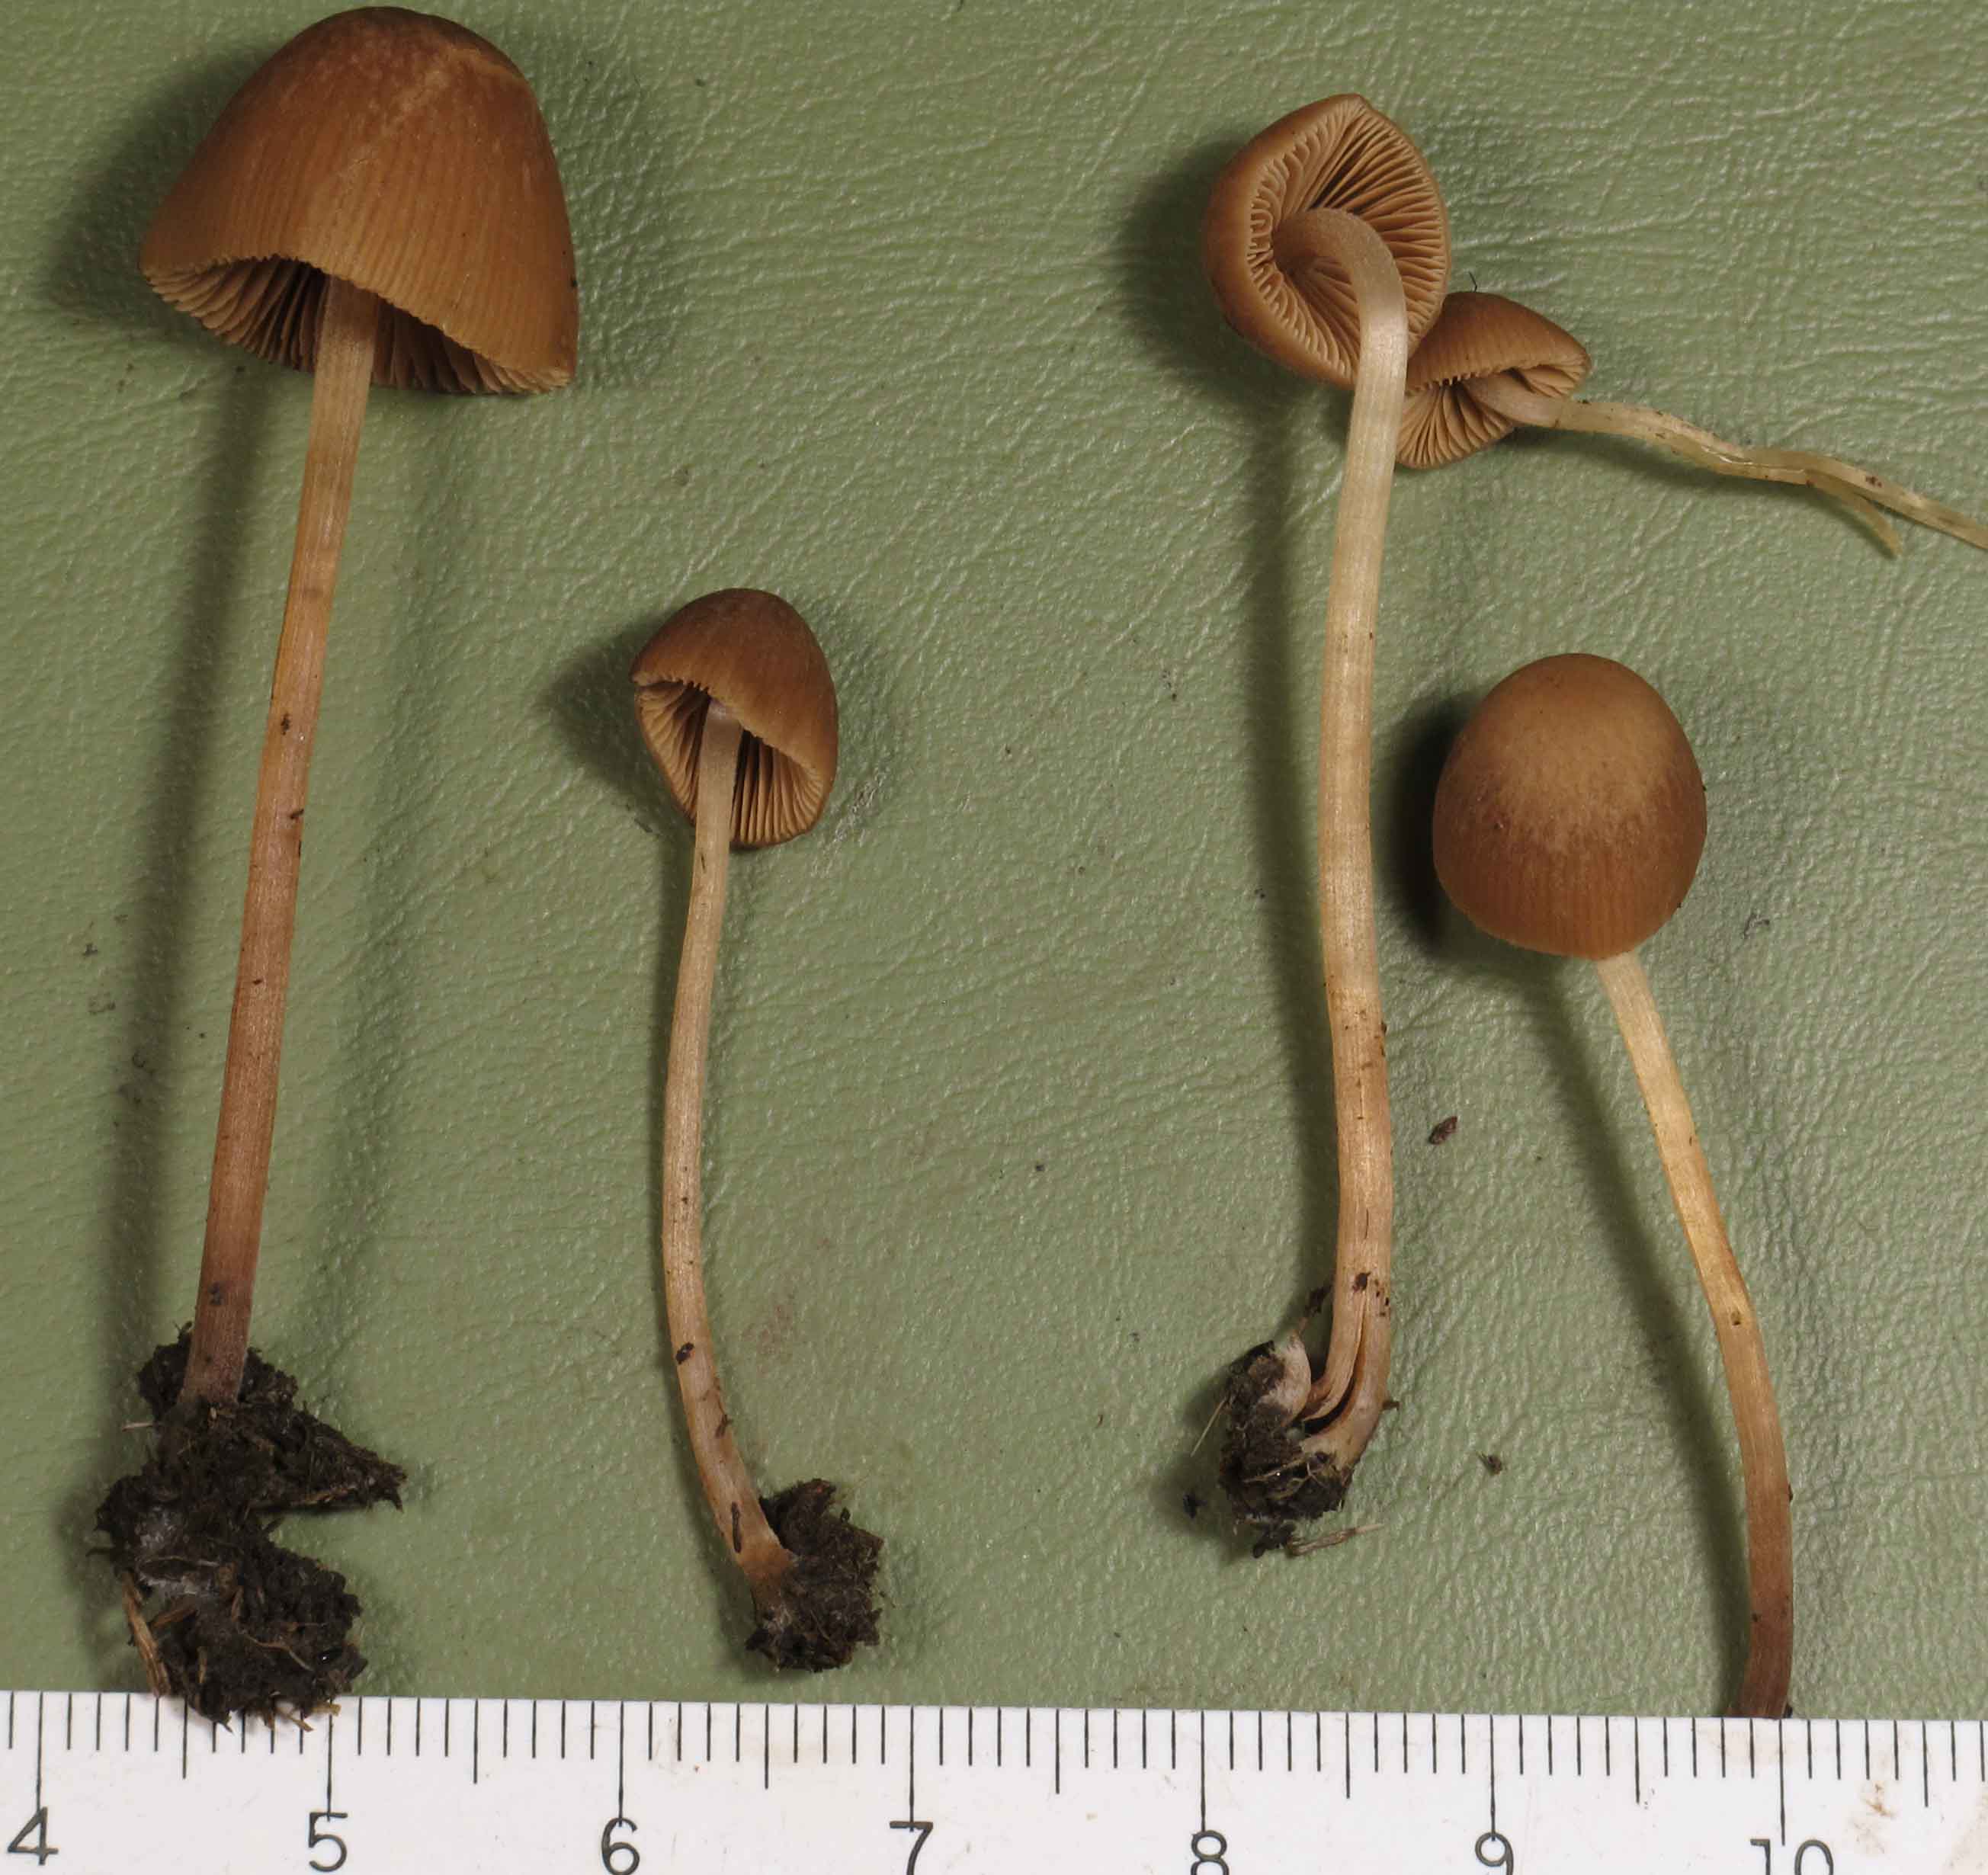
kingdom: Fungi
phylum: Basidiomycota
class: Agaricomycetes
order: Agaricales
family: Bolbitiaceae
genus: Conocybe
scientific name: Conocybe fimetaria
